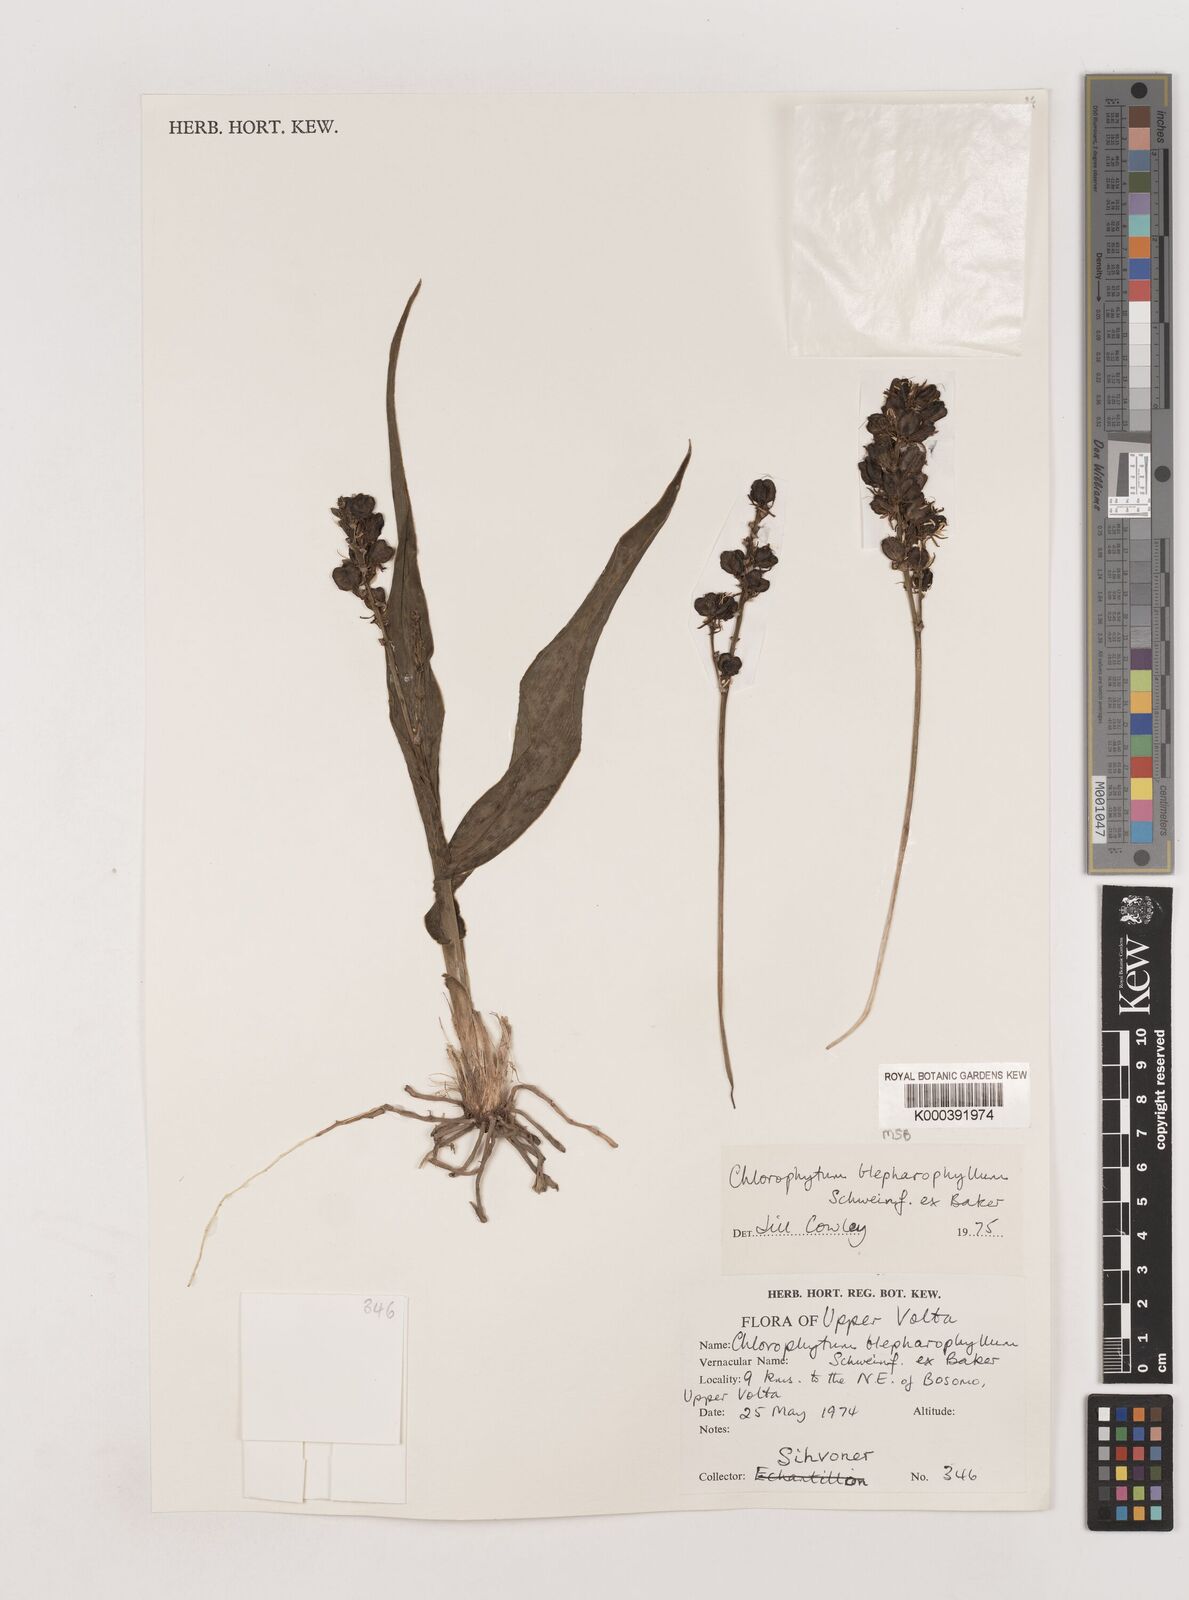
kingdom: Plantae
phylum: Tracheophyta
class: Liliopsida
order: Asparagales
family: Asparagaceae
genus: Chlorophytum
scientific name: Chlorophytum blepharophyllum
